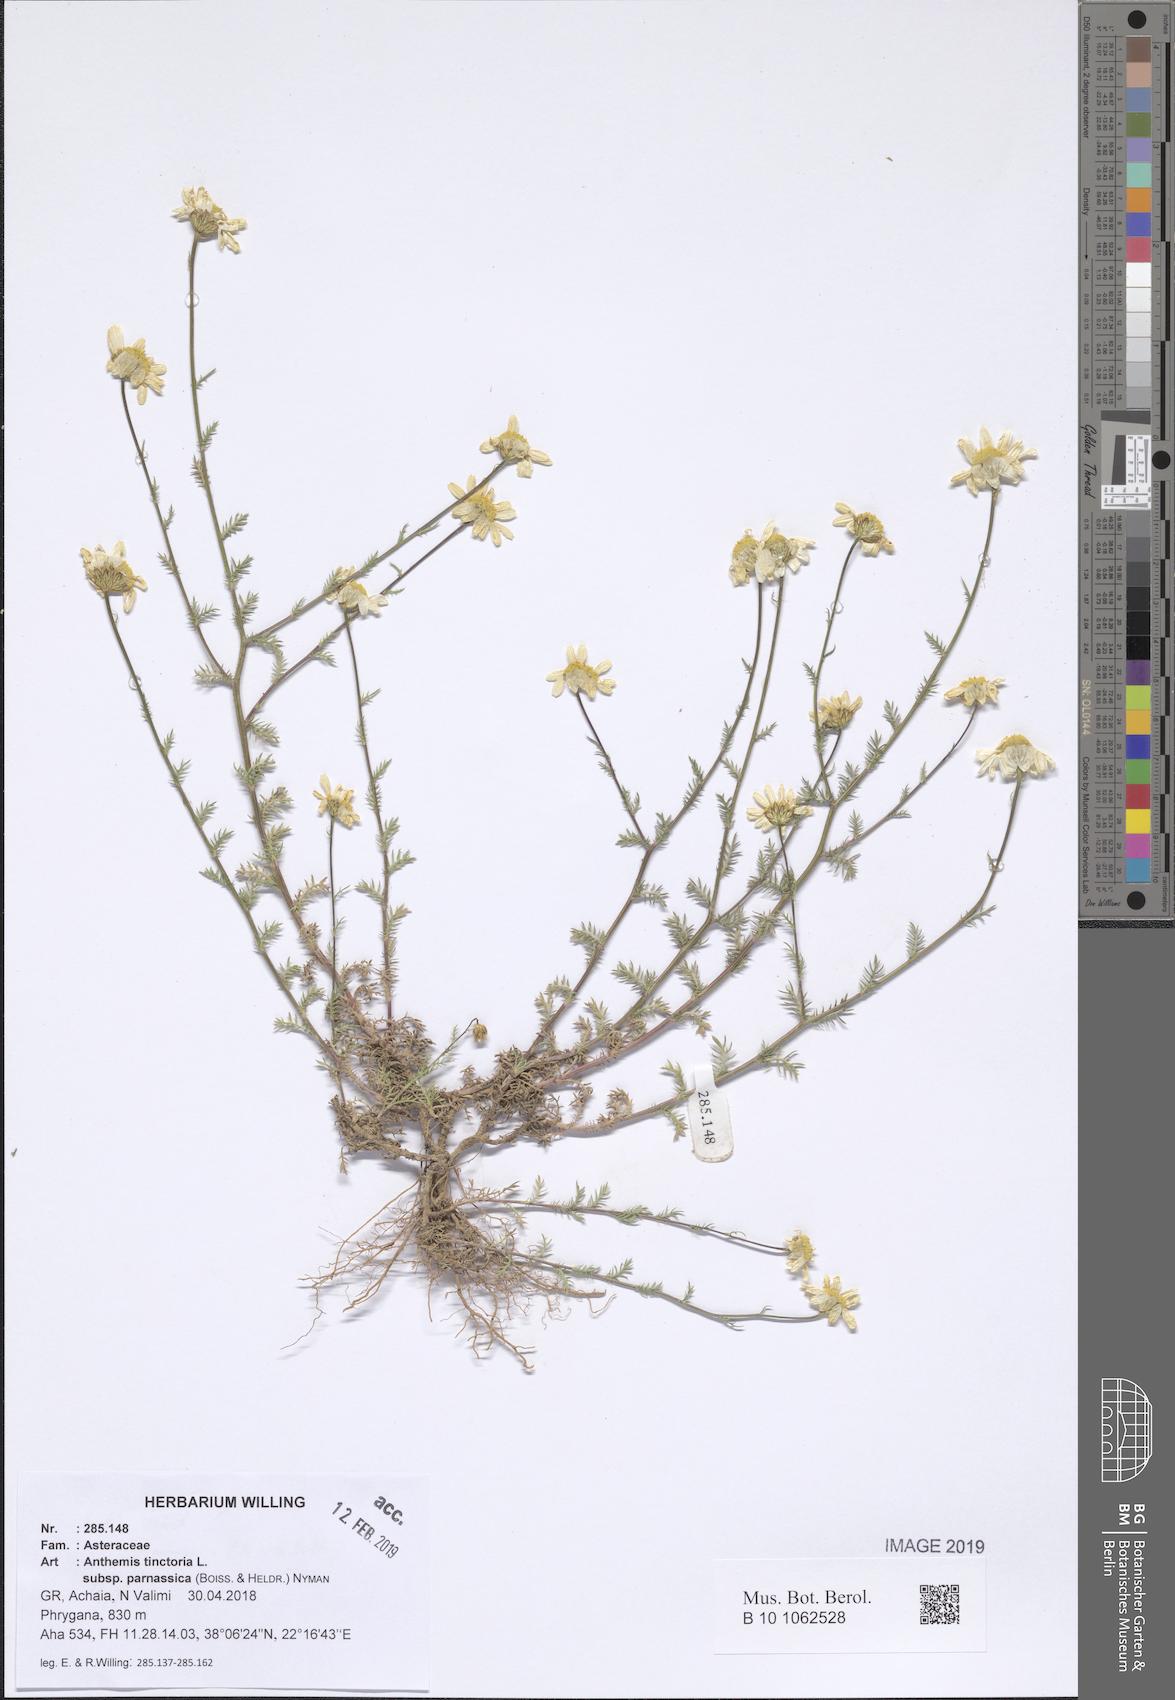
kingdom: Plantae
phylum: Tracheophyta
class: Magnoliopsida
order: Asterales
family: Asteraceae
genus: Cota
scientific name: Cota tinctoria
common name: Golden chamomile
